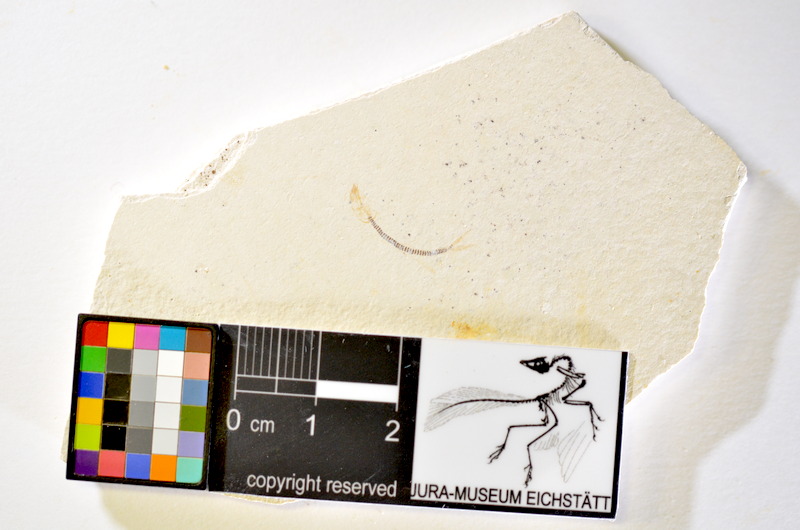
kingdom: Animalia
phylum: Chordata
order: Salmoniformes
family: Orthogonikleithridae
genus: Orthogonikleithrus
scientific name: Orthogonikleithrus hoelli
